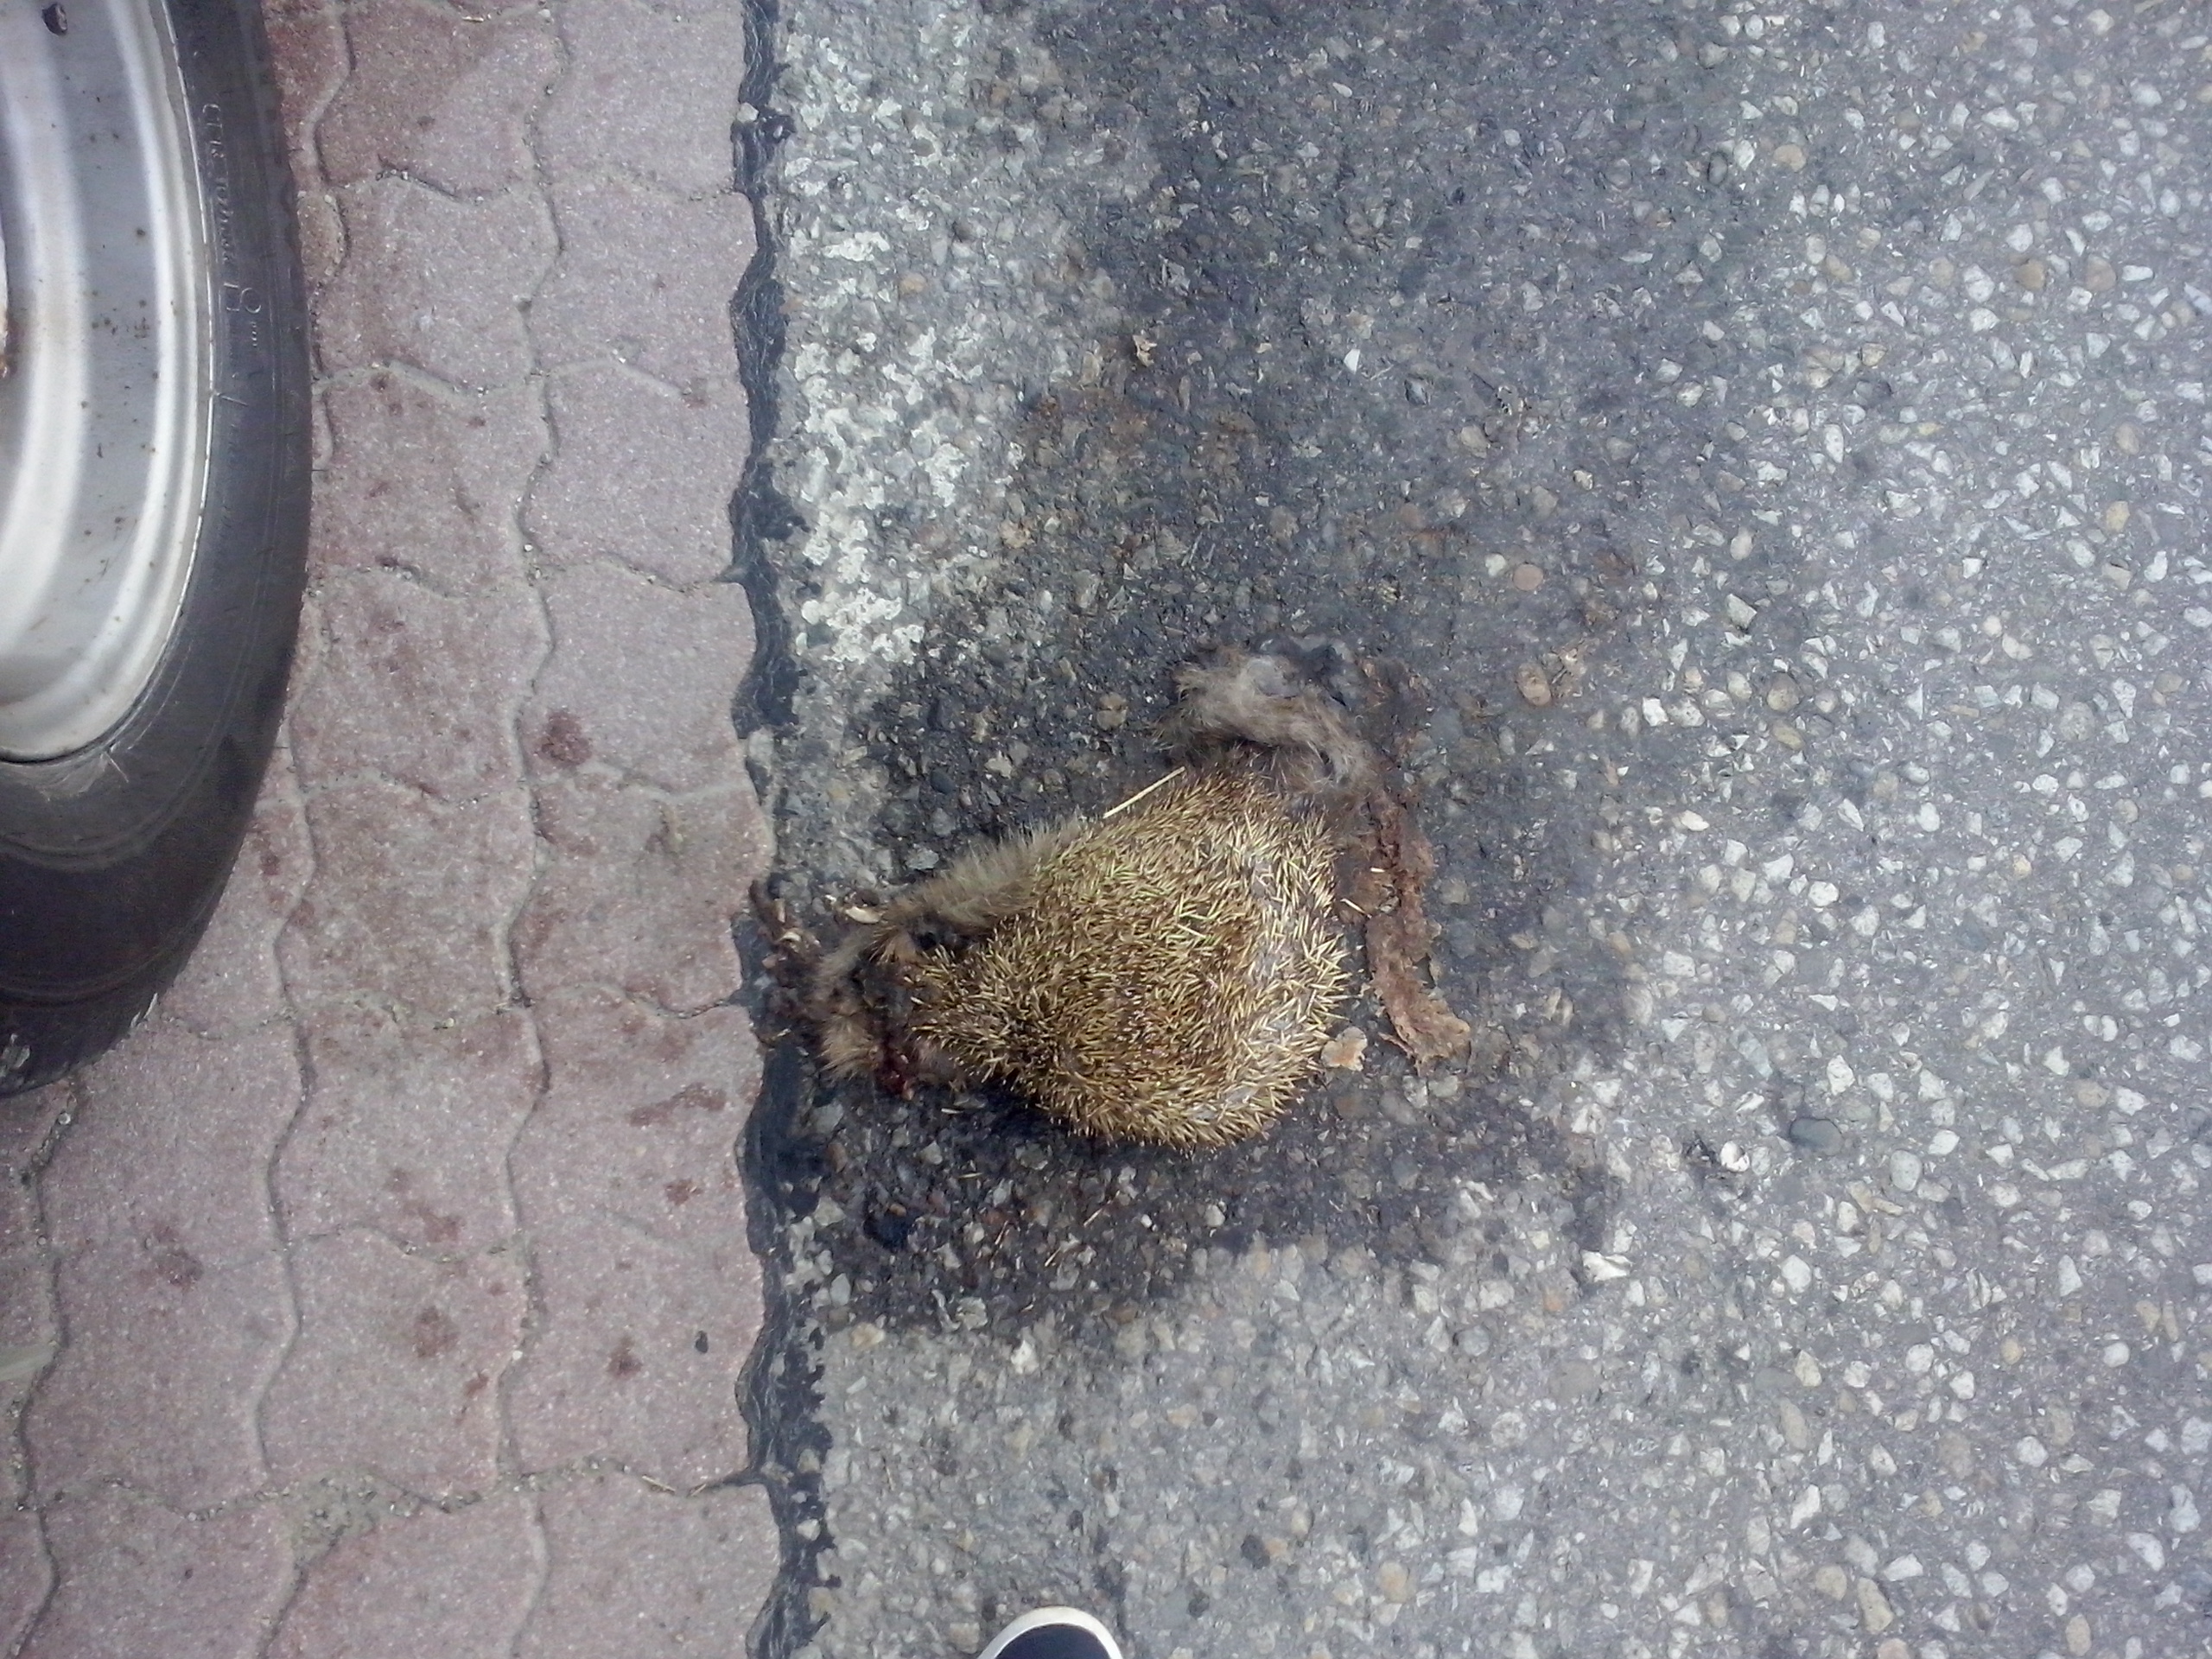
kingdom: Animalia
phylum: Chordata
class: Mammalia
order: Erinaceomorpha
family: Erinaceidae
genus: Erinaceus
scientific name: Erinaceus
